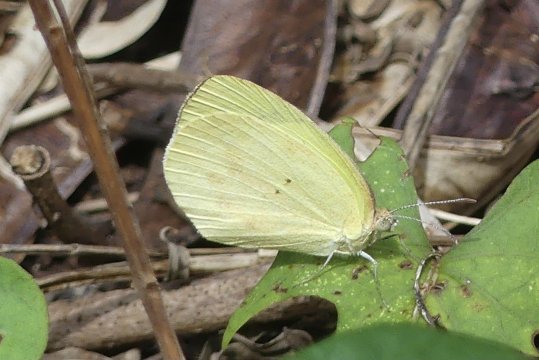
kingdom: Animalia
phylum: Arthropoda
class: Insecta
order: Lepidoptera
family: Pieridae
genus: Eurema
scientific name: Eurema daira
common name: Barred Yellow
